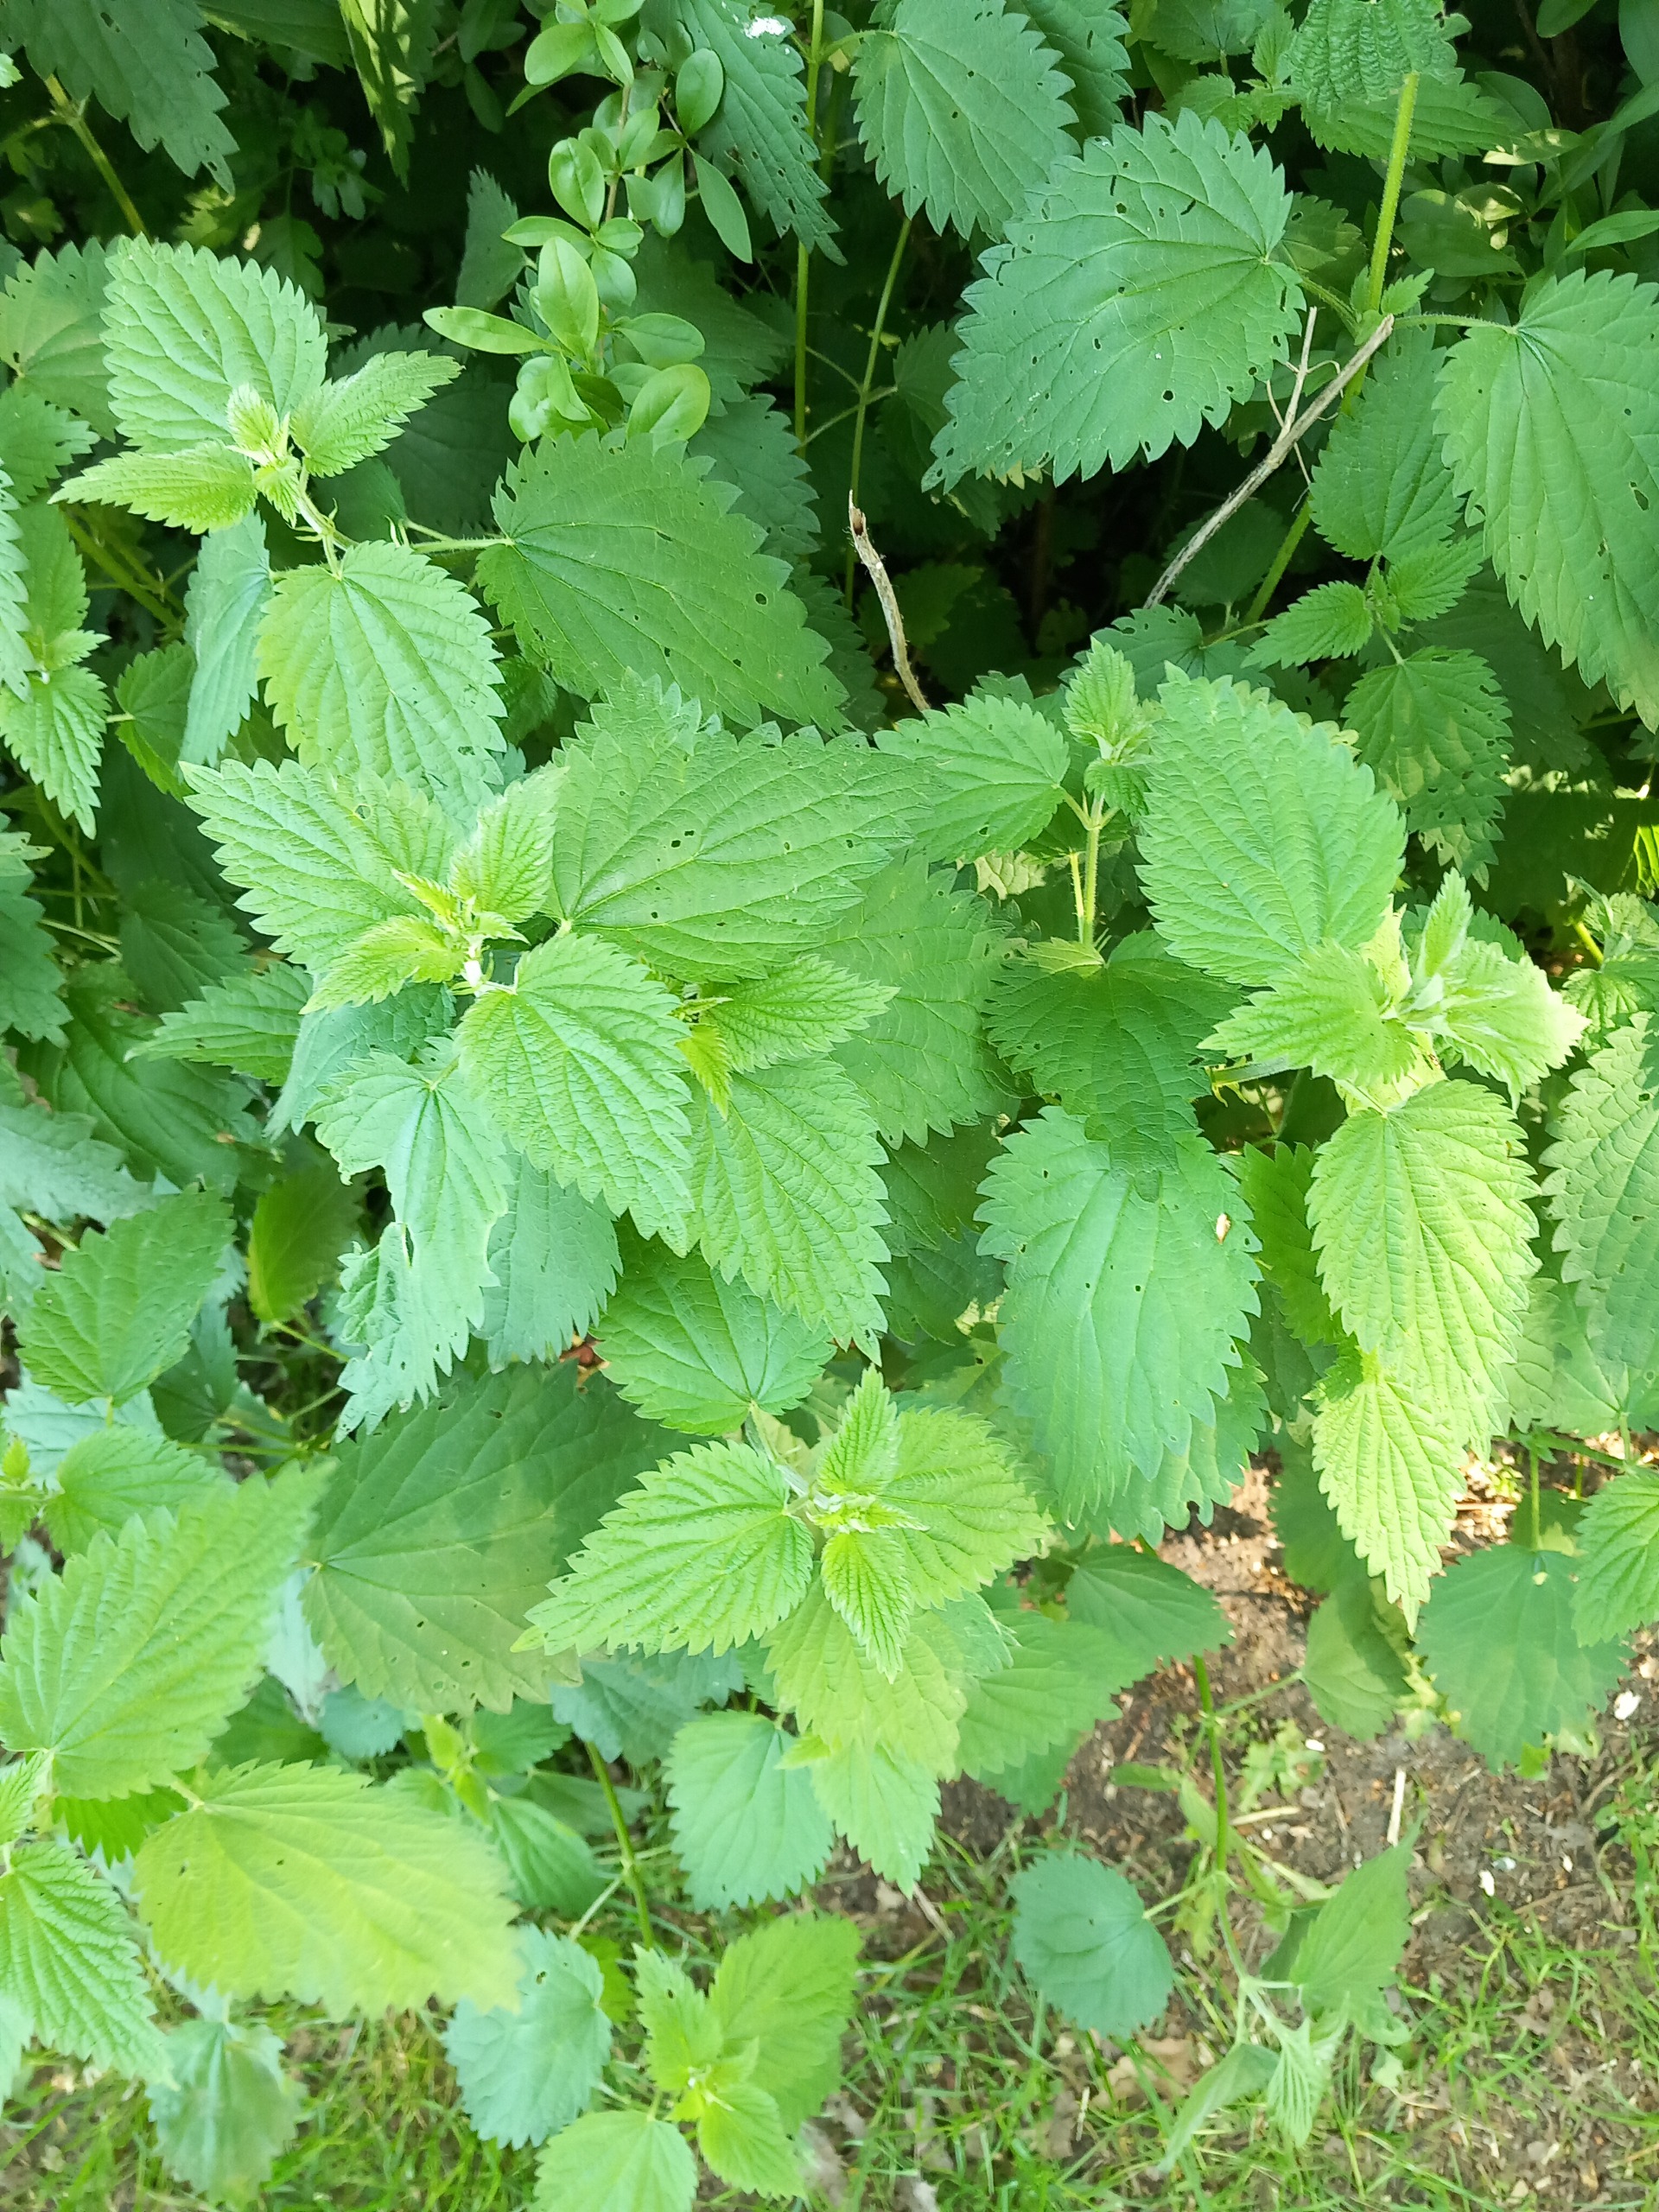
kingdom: Plantae
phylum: Tracheophyta
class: Magnoliopsida
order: Rosales
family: Urticaceae
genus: Urtica
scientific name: Urtica dioica
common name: Stor nælde
